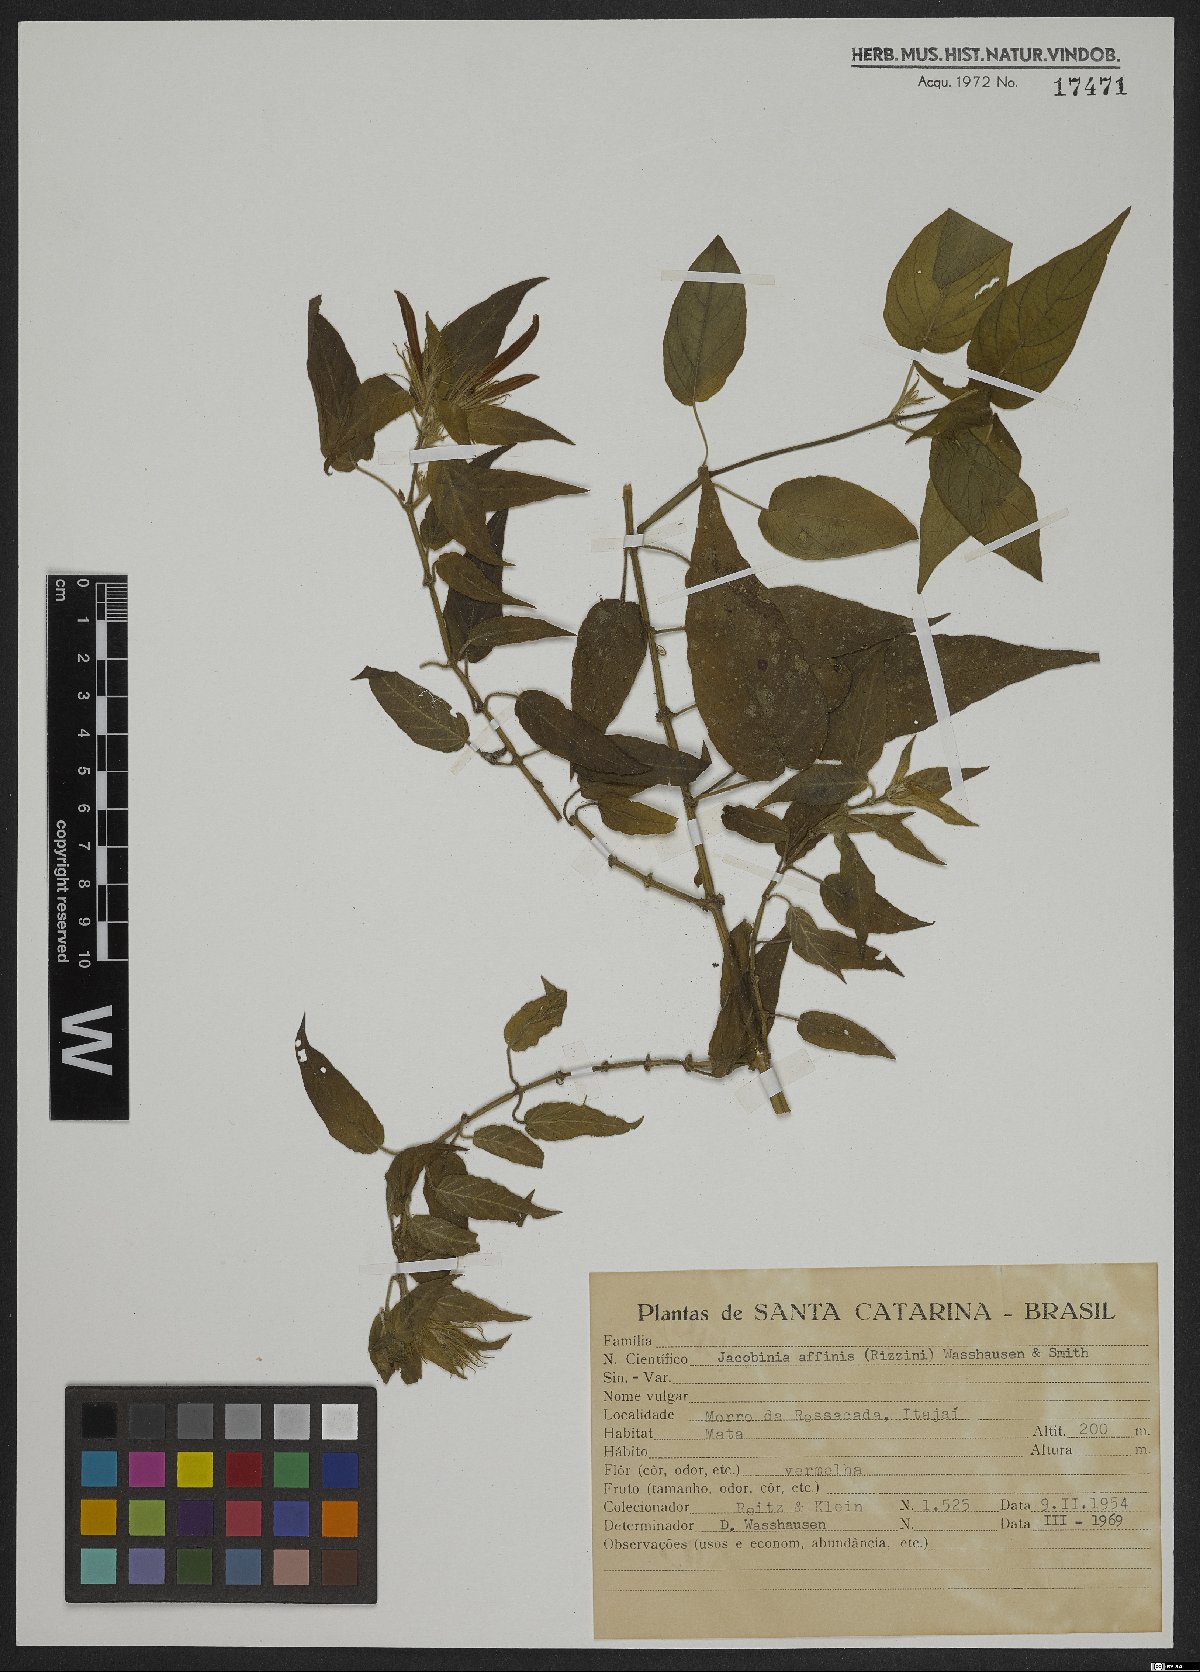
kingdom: Plantae
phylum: Tracheophyta
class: Magnoliopsida
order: Myrtales
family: Onagraceae
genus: Ludwigia
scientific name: Ludwigia affinis
